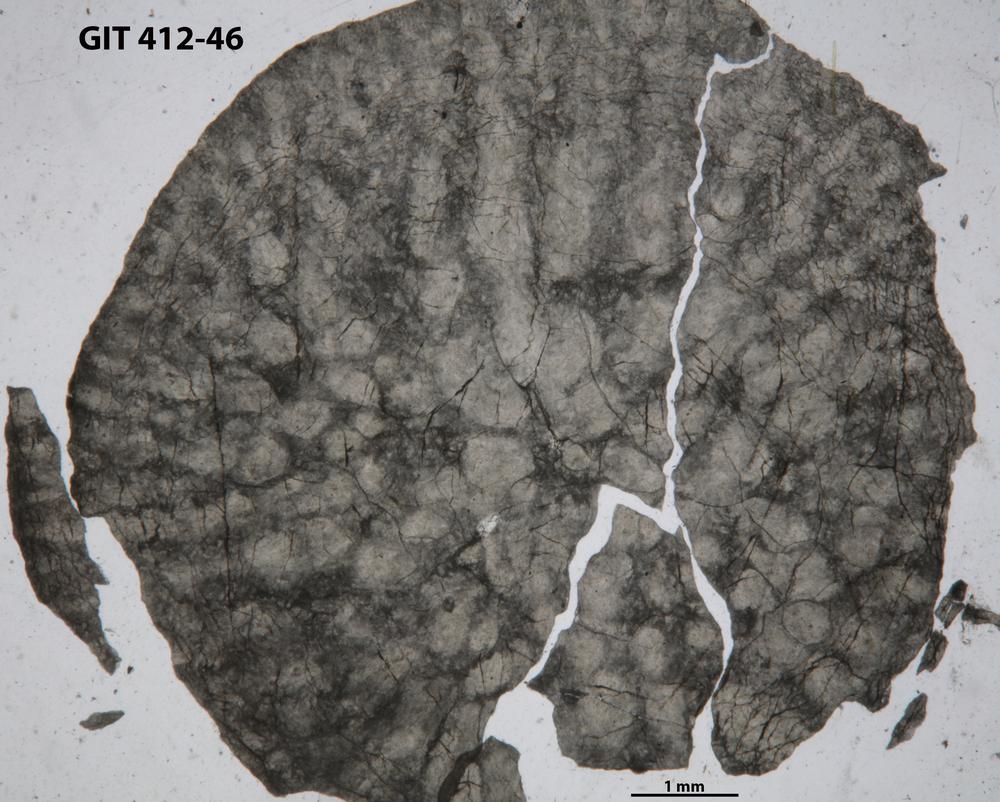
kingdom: Animalia
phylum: Cnidaria
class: Anthozoa
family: Streptelasmatidae
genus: Streptelasma
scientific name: Streptelasma
